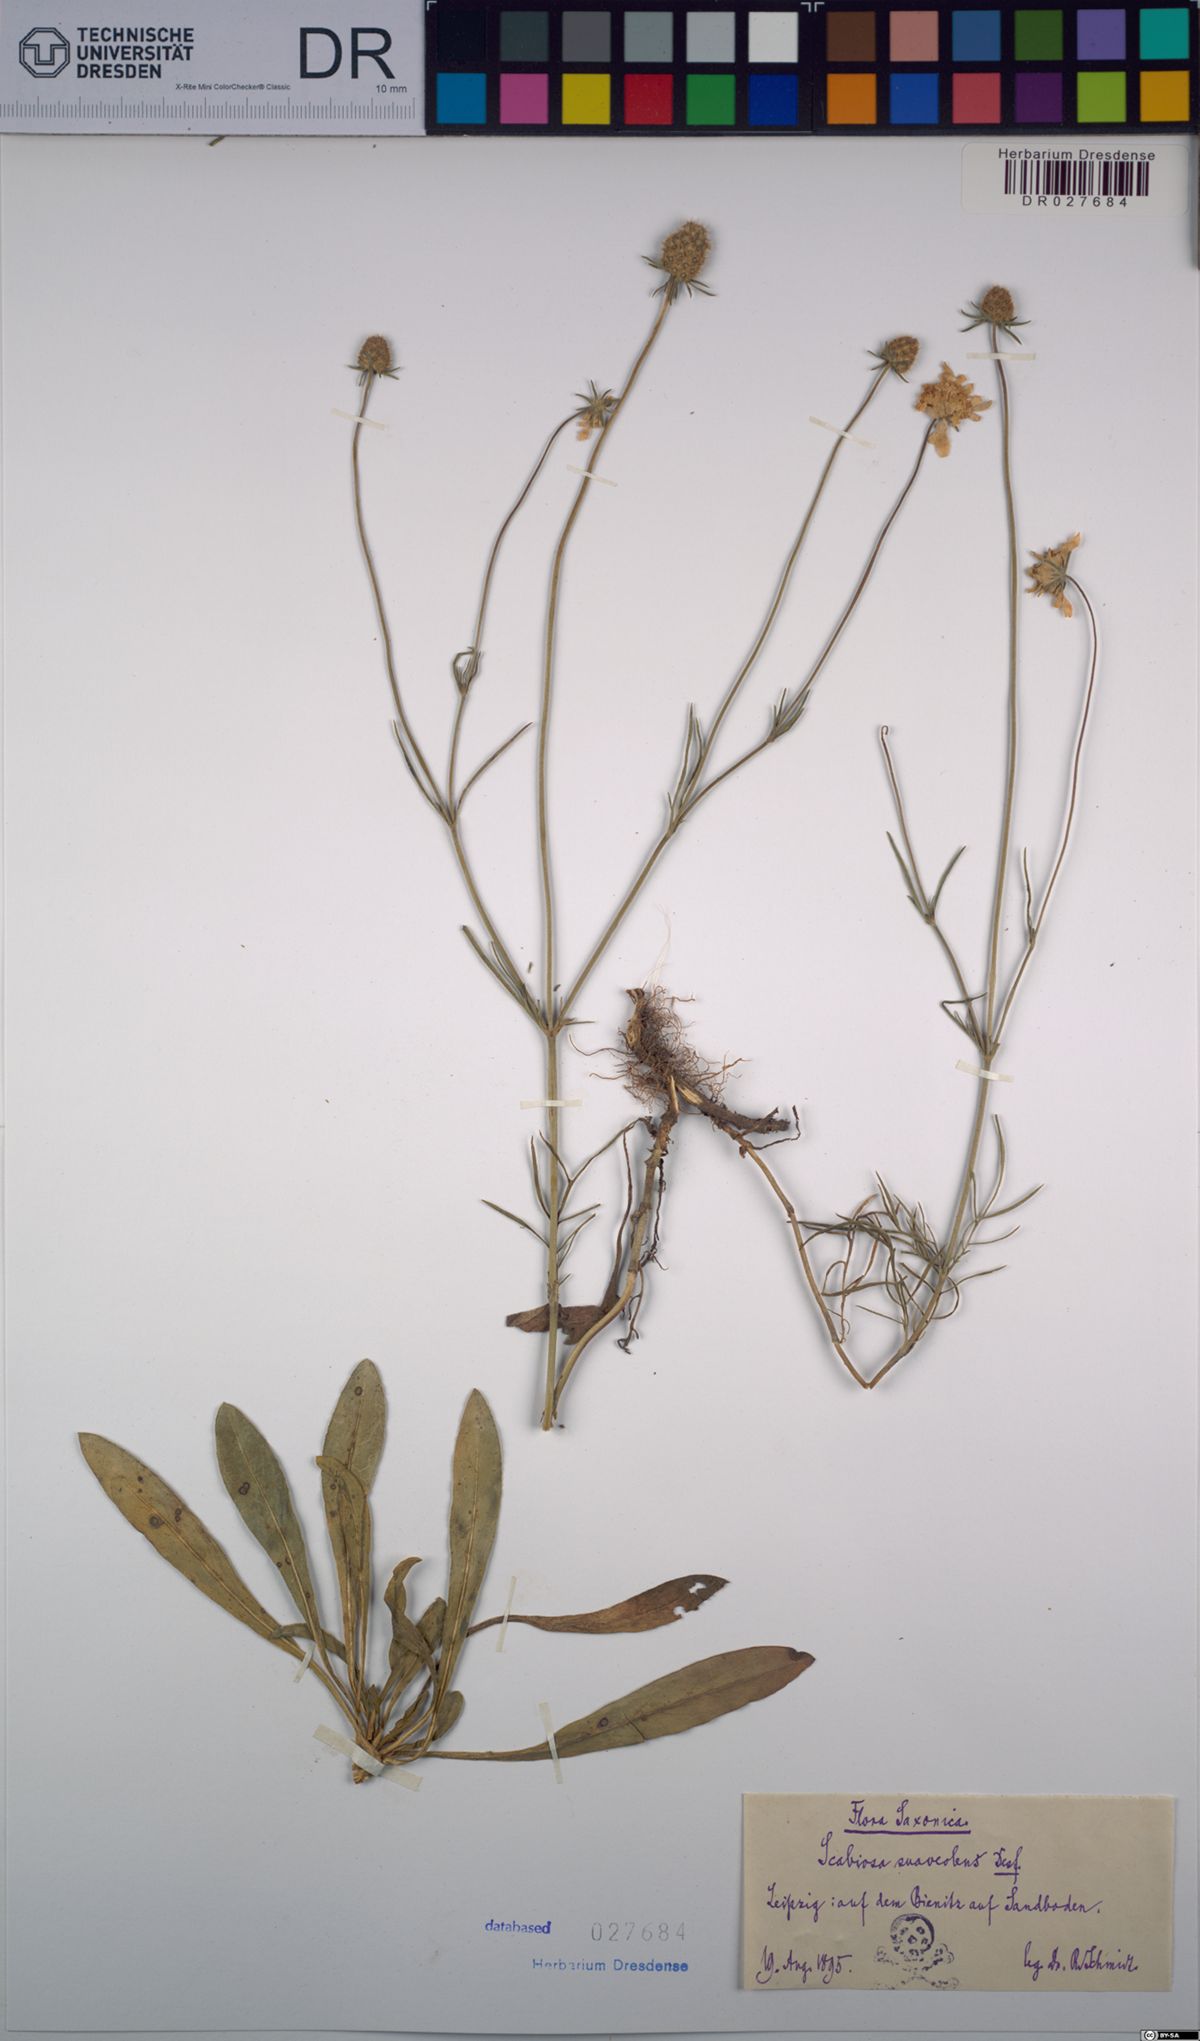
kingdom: Plantae
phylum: Tracheophyta
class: Magnoliopsida
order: Dipsacales
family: Caprifoliaceae
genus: Scabiosa
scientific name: Scabiosa canescens
